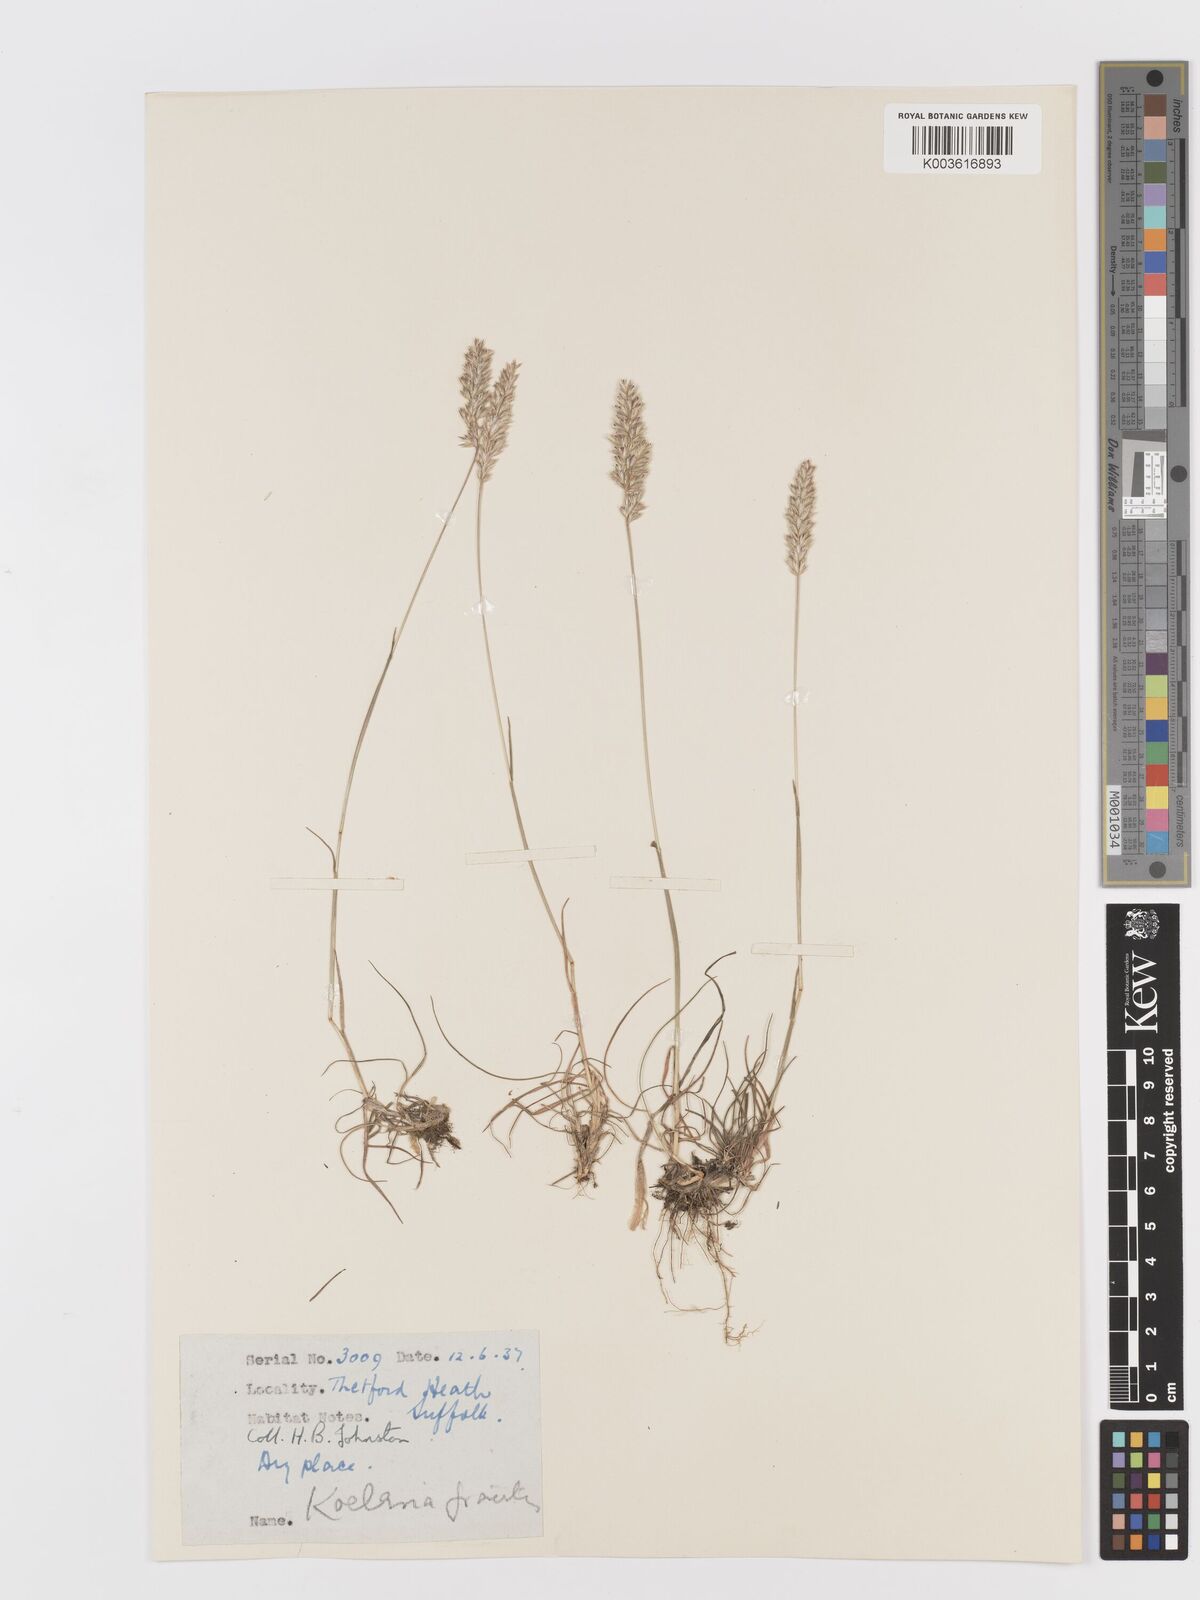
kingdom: Plantae
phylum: Tracheophyta
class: Liliopsida
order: Poales
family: Poaceae
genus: Koeleria
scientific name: Koeleria macrantha
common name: Crested hair-grass
